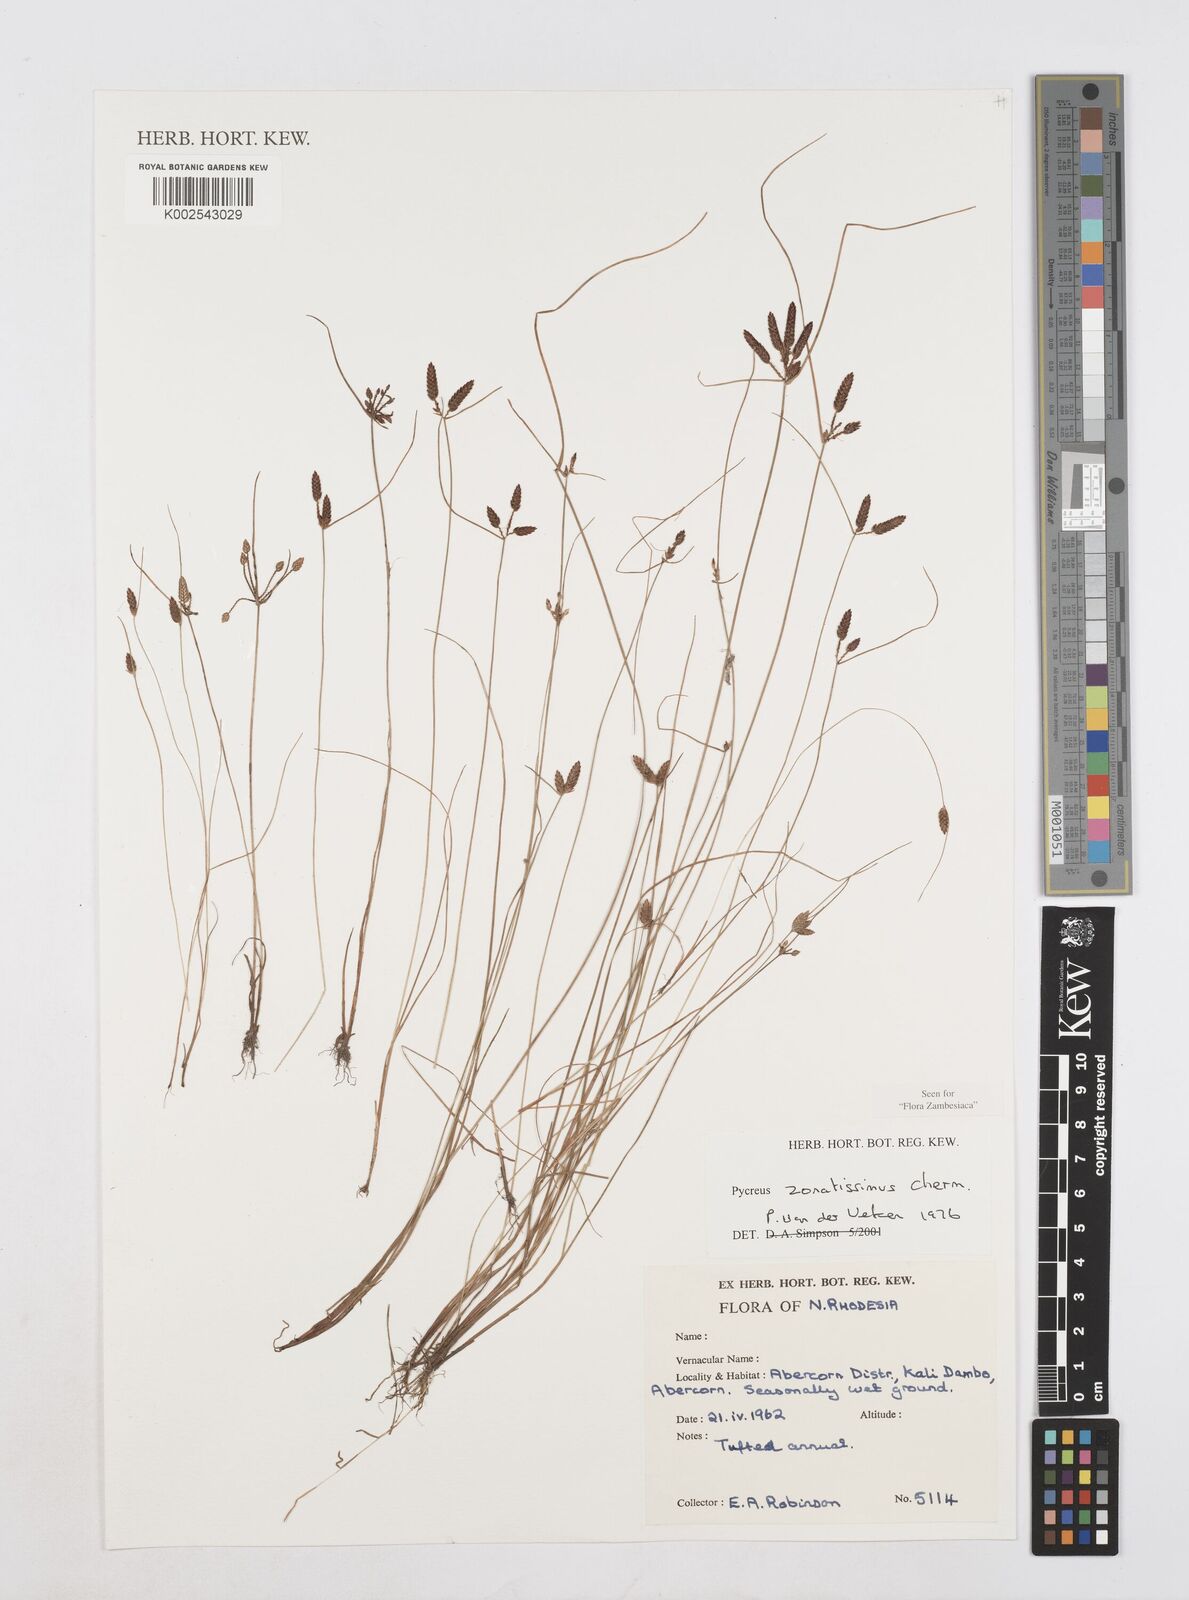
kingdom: Plantae
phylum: Tracheophyta
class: Liliopsida
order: Poales
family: Cyperaceae
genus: Cyperus
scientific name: Cyperus zonatissimus
